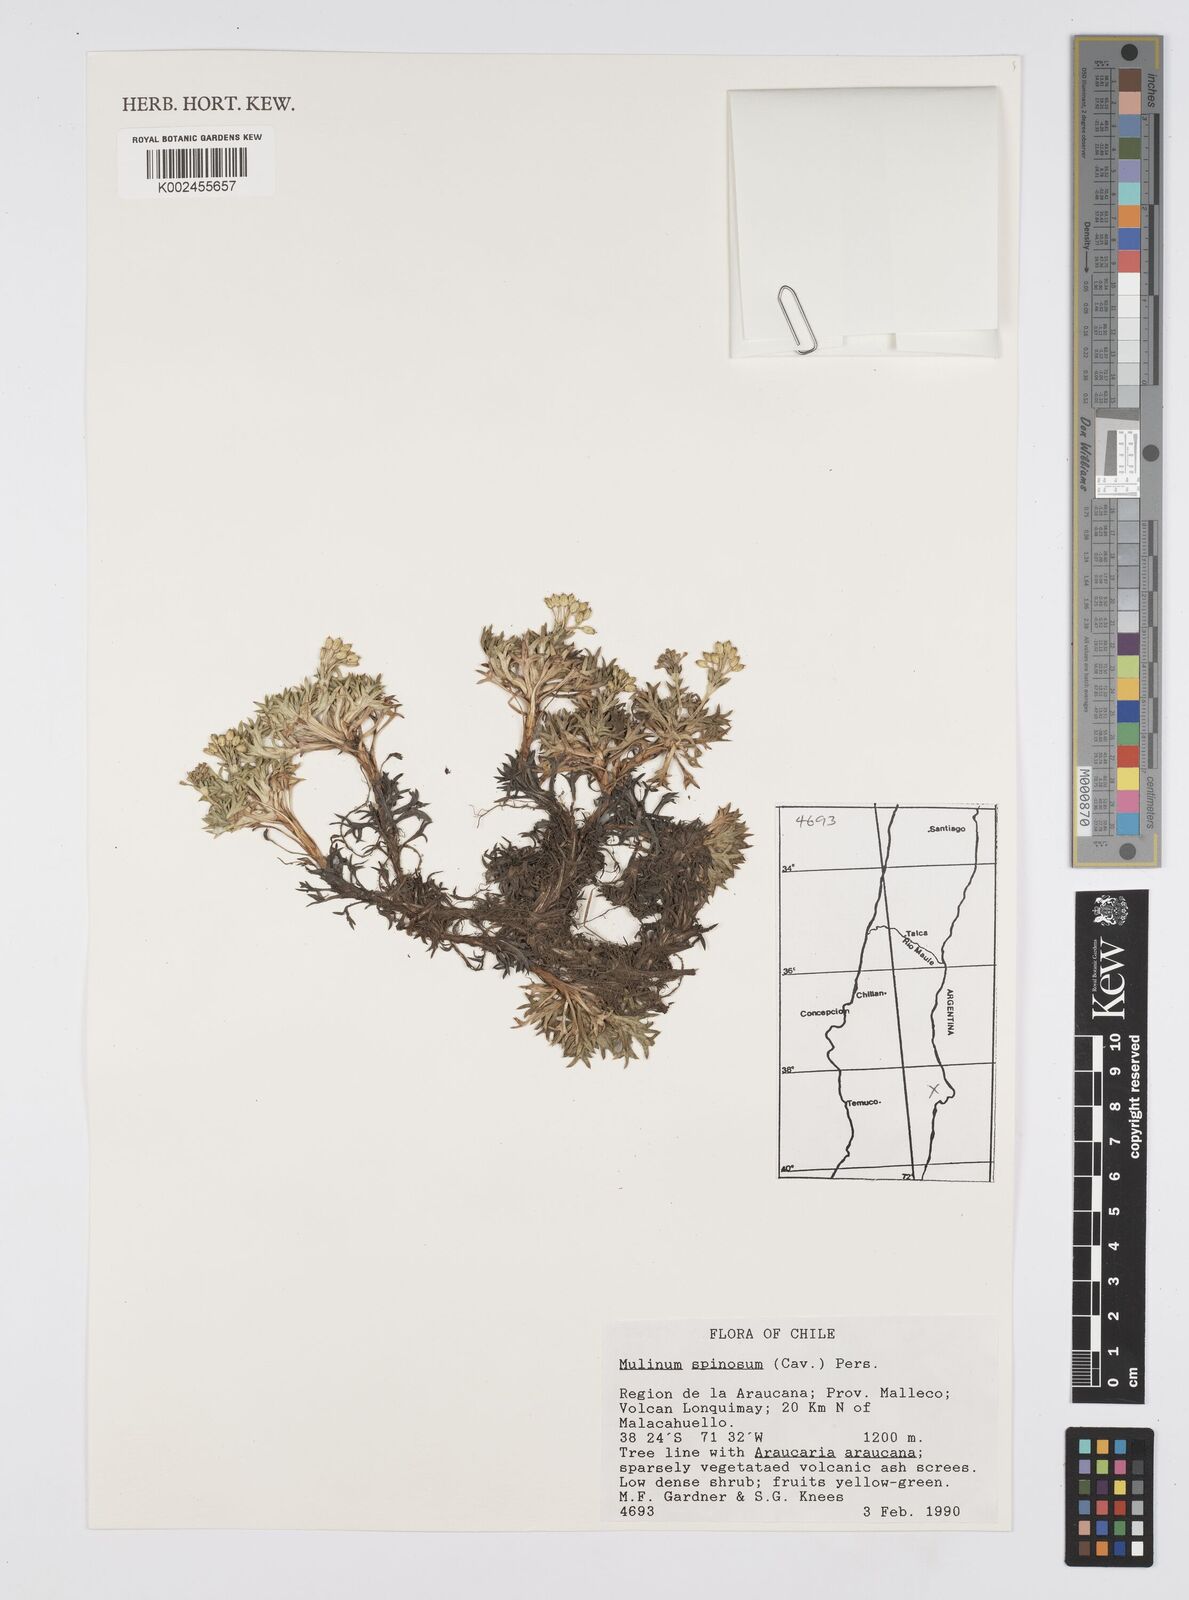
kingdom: Plantae
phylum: Tracheophyta
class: Magnoliopsida
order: Apiales
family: Apiaceae
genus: Azorella
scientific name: Azorella prolifera
